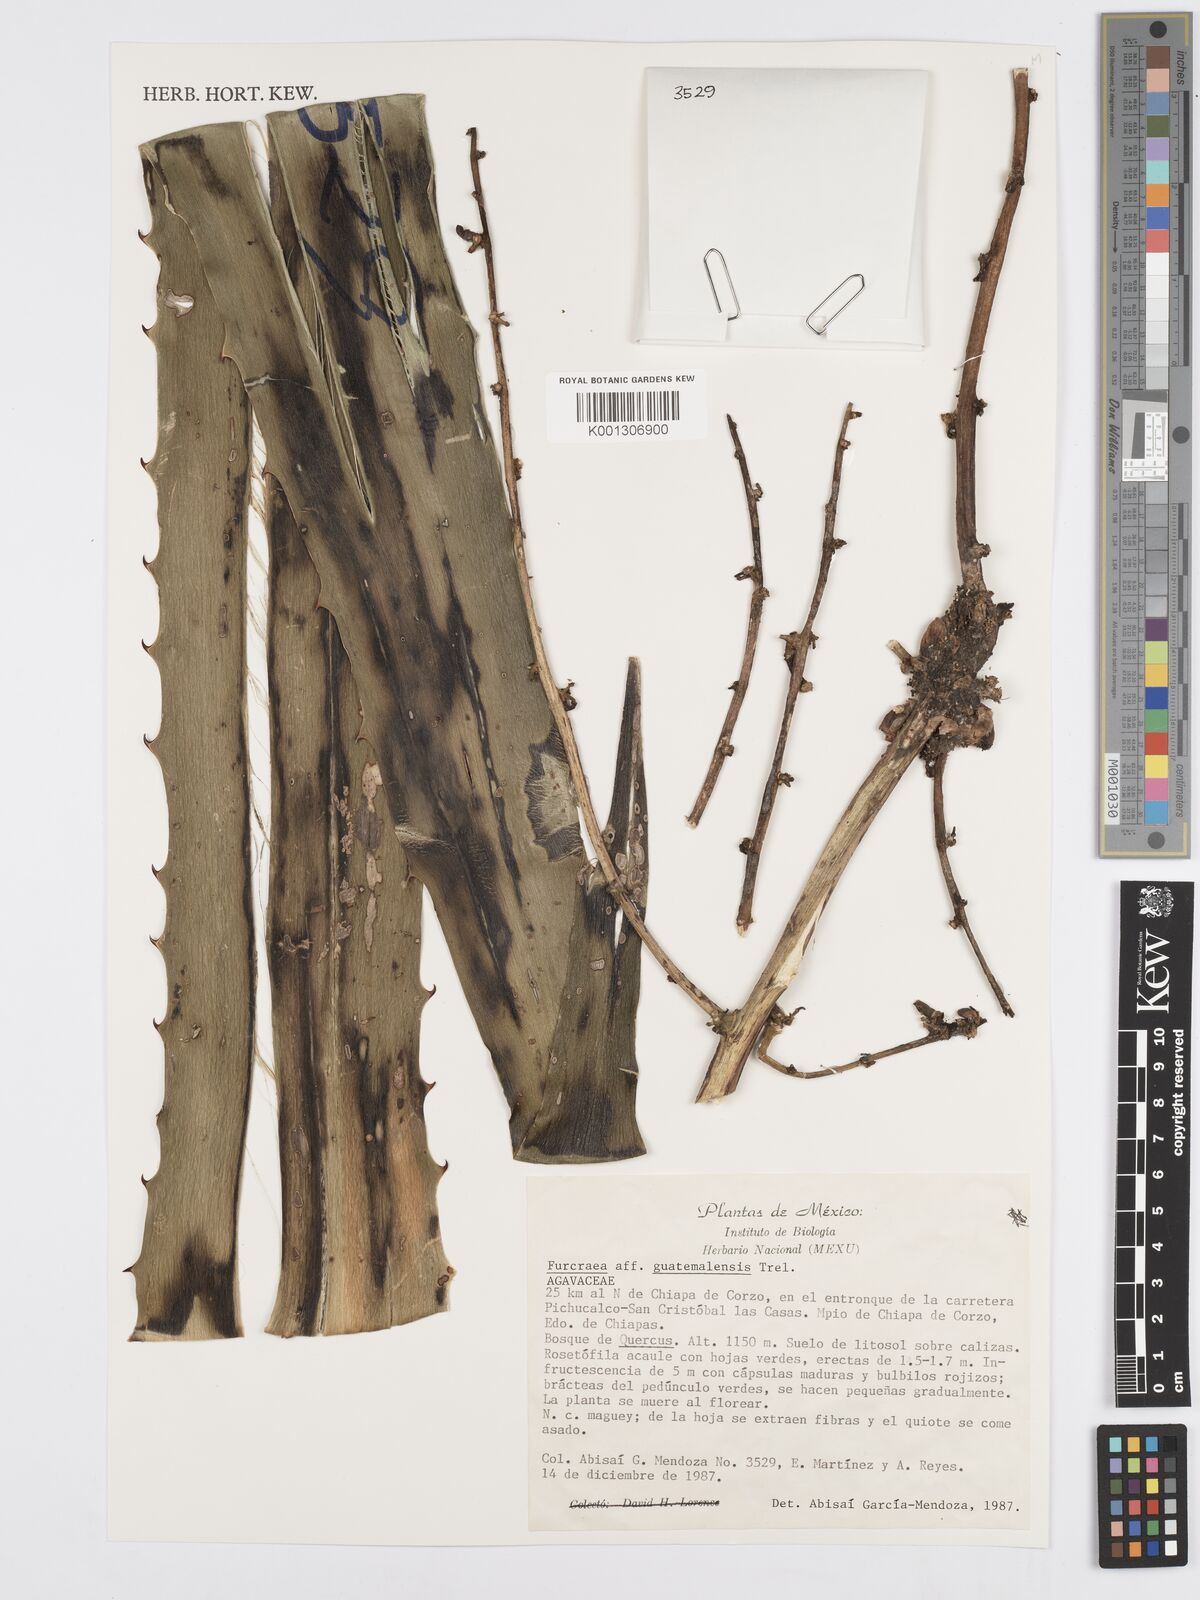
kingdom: Plantae
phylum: Tracheophyta
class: Liliopsida
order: Asparagales
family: Asparagaceae
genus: Furcraea
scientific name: Furcraea guatemalensis
